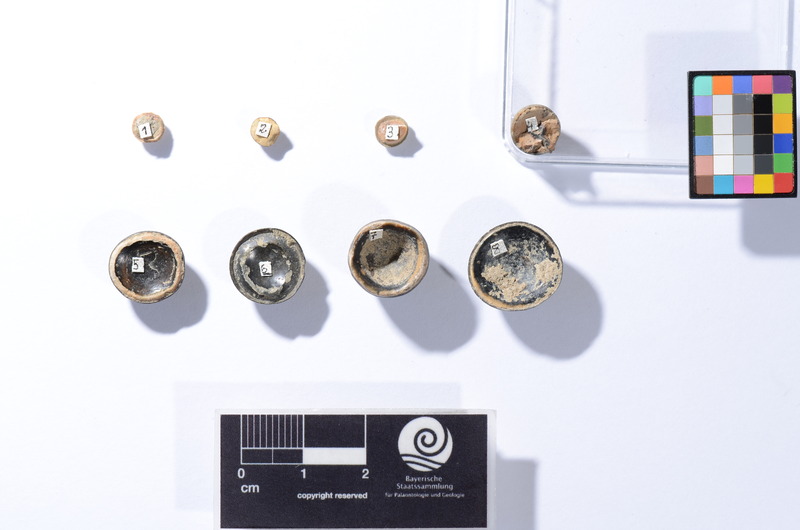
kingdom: Animalia
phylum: Chordata
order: Tetraodontiformes
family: Trigonodontidae
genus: Trigonodon
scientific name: Trigonodon Radamas jugleri
